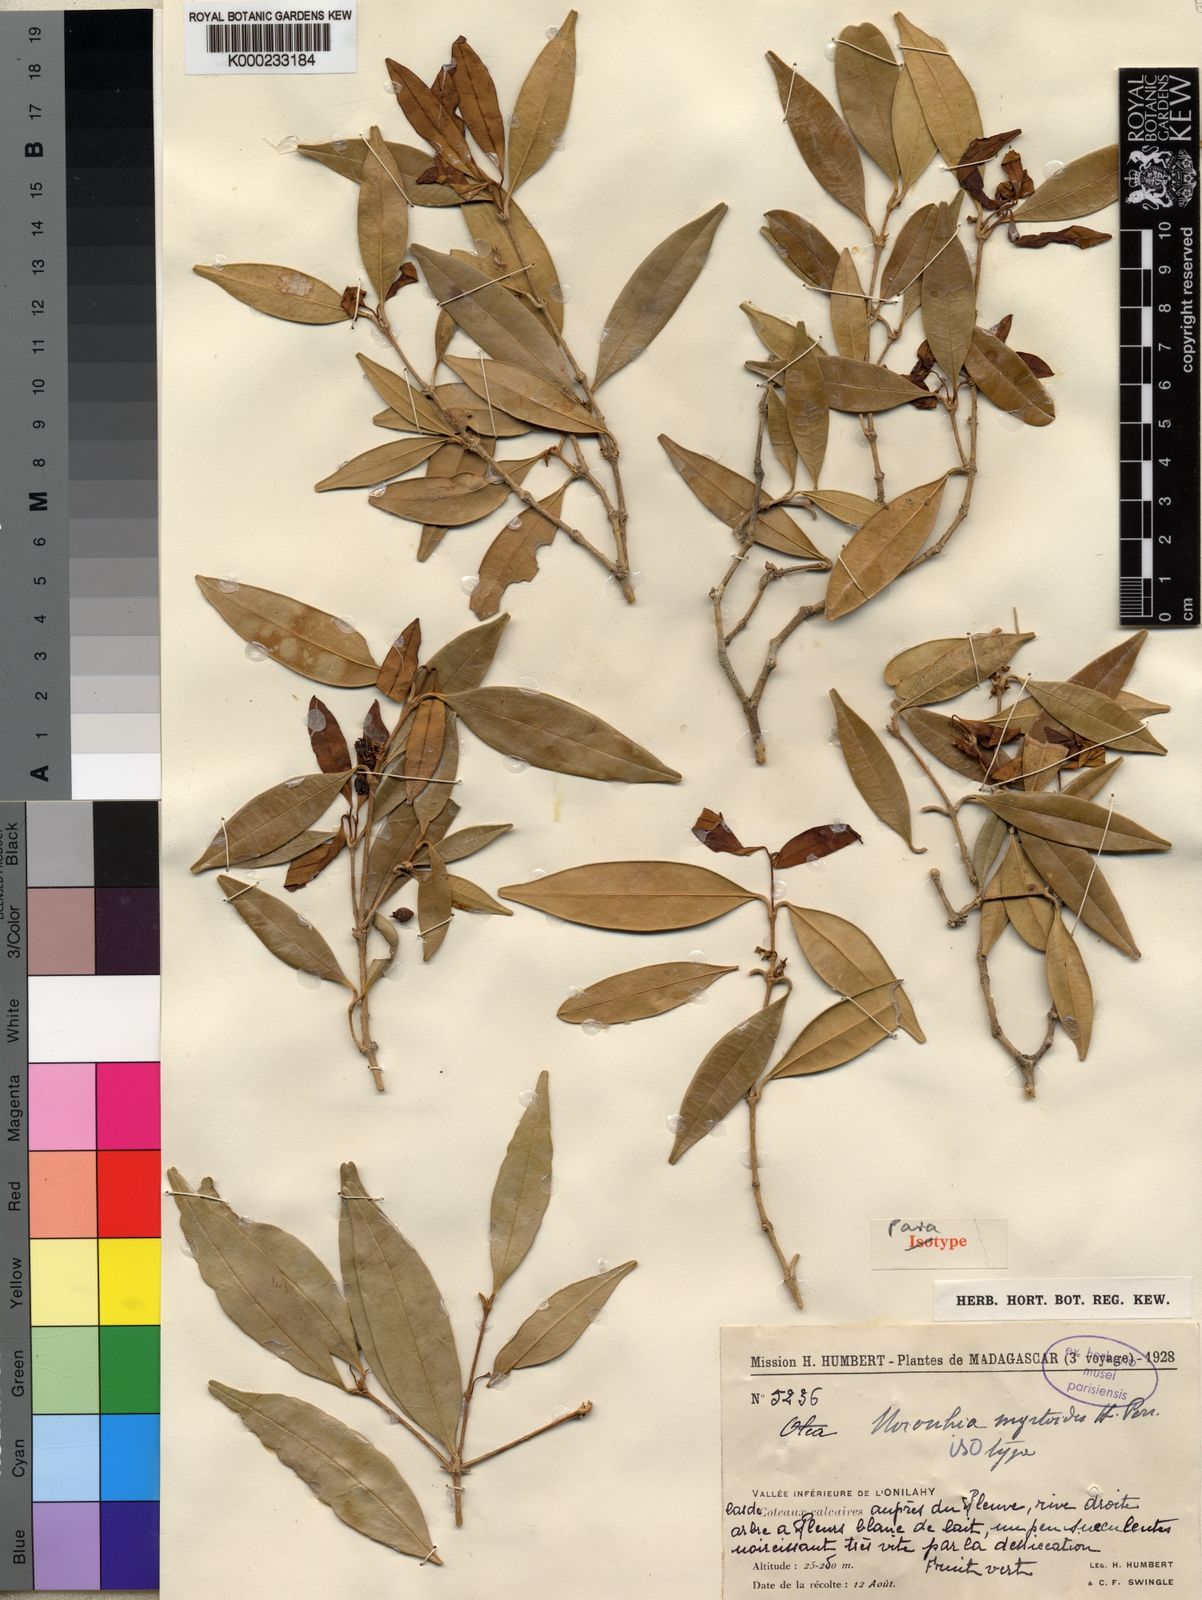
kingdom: Plantae
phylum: Tracheophyta
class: Magnoliopsida
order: Lamiales
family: Oleaceae
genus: Noronhia
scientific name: Noronhia myrtoides
